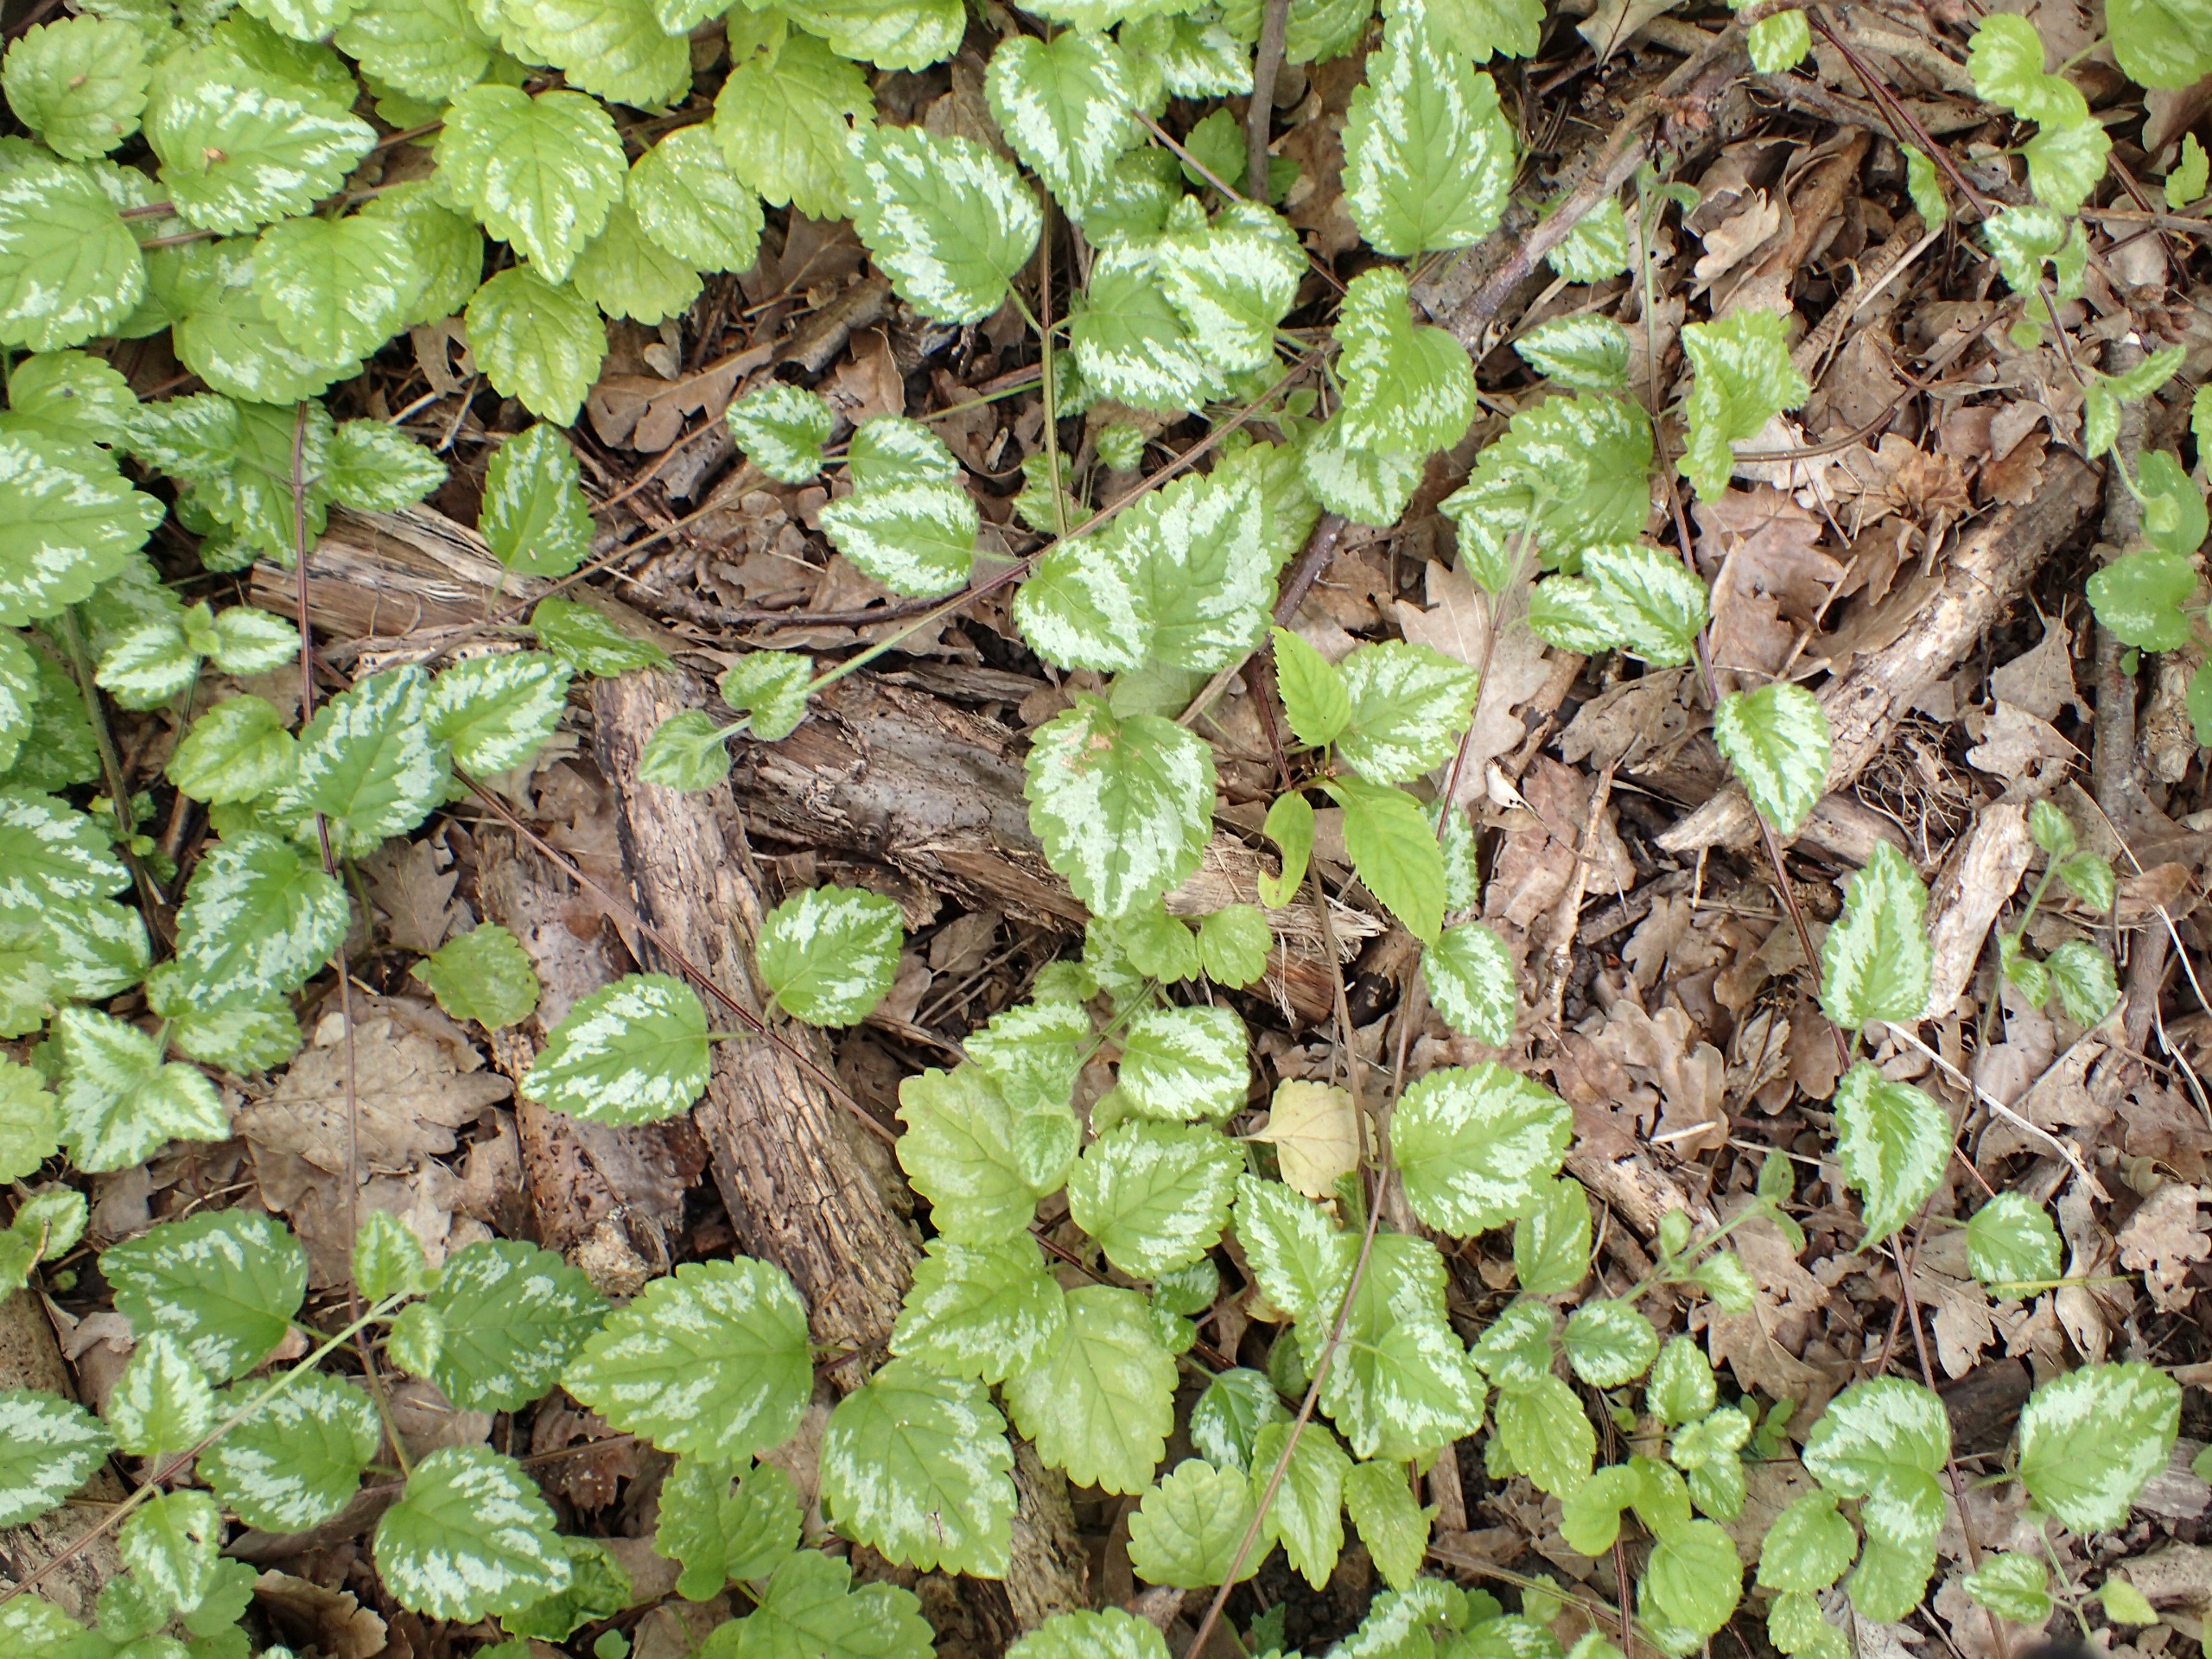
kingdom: Plantae
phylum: Tracheophyta
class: Magnoliopsida
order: Lamiales
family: Lamiaceae
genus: Lamium
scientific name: Lamium galeobdolon
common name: Have-guldnælde
